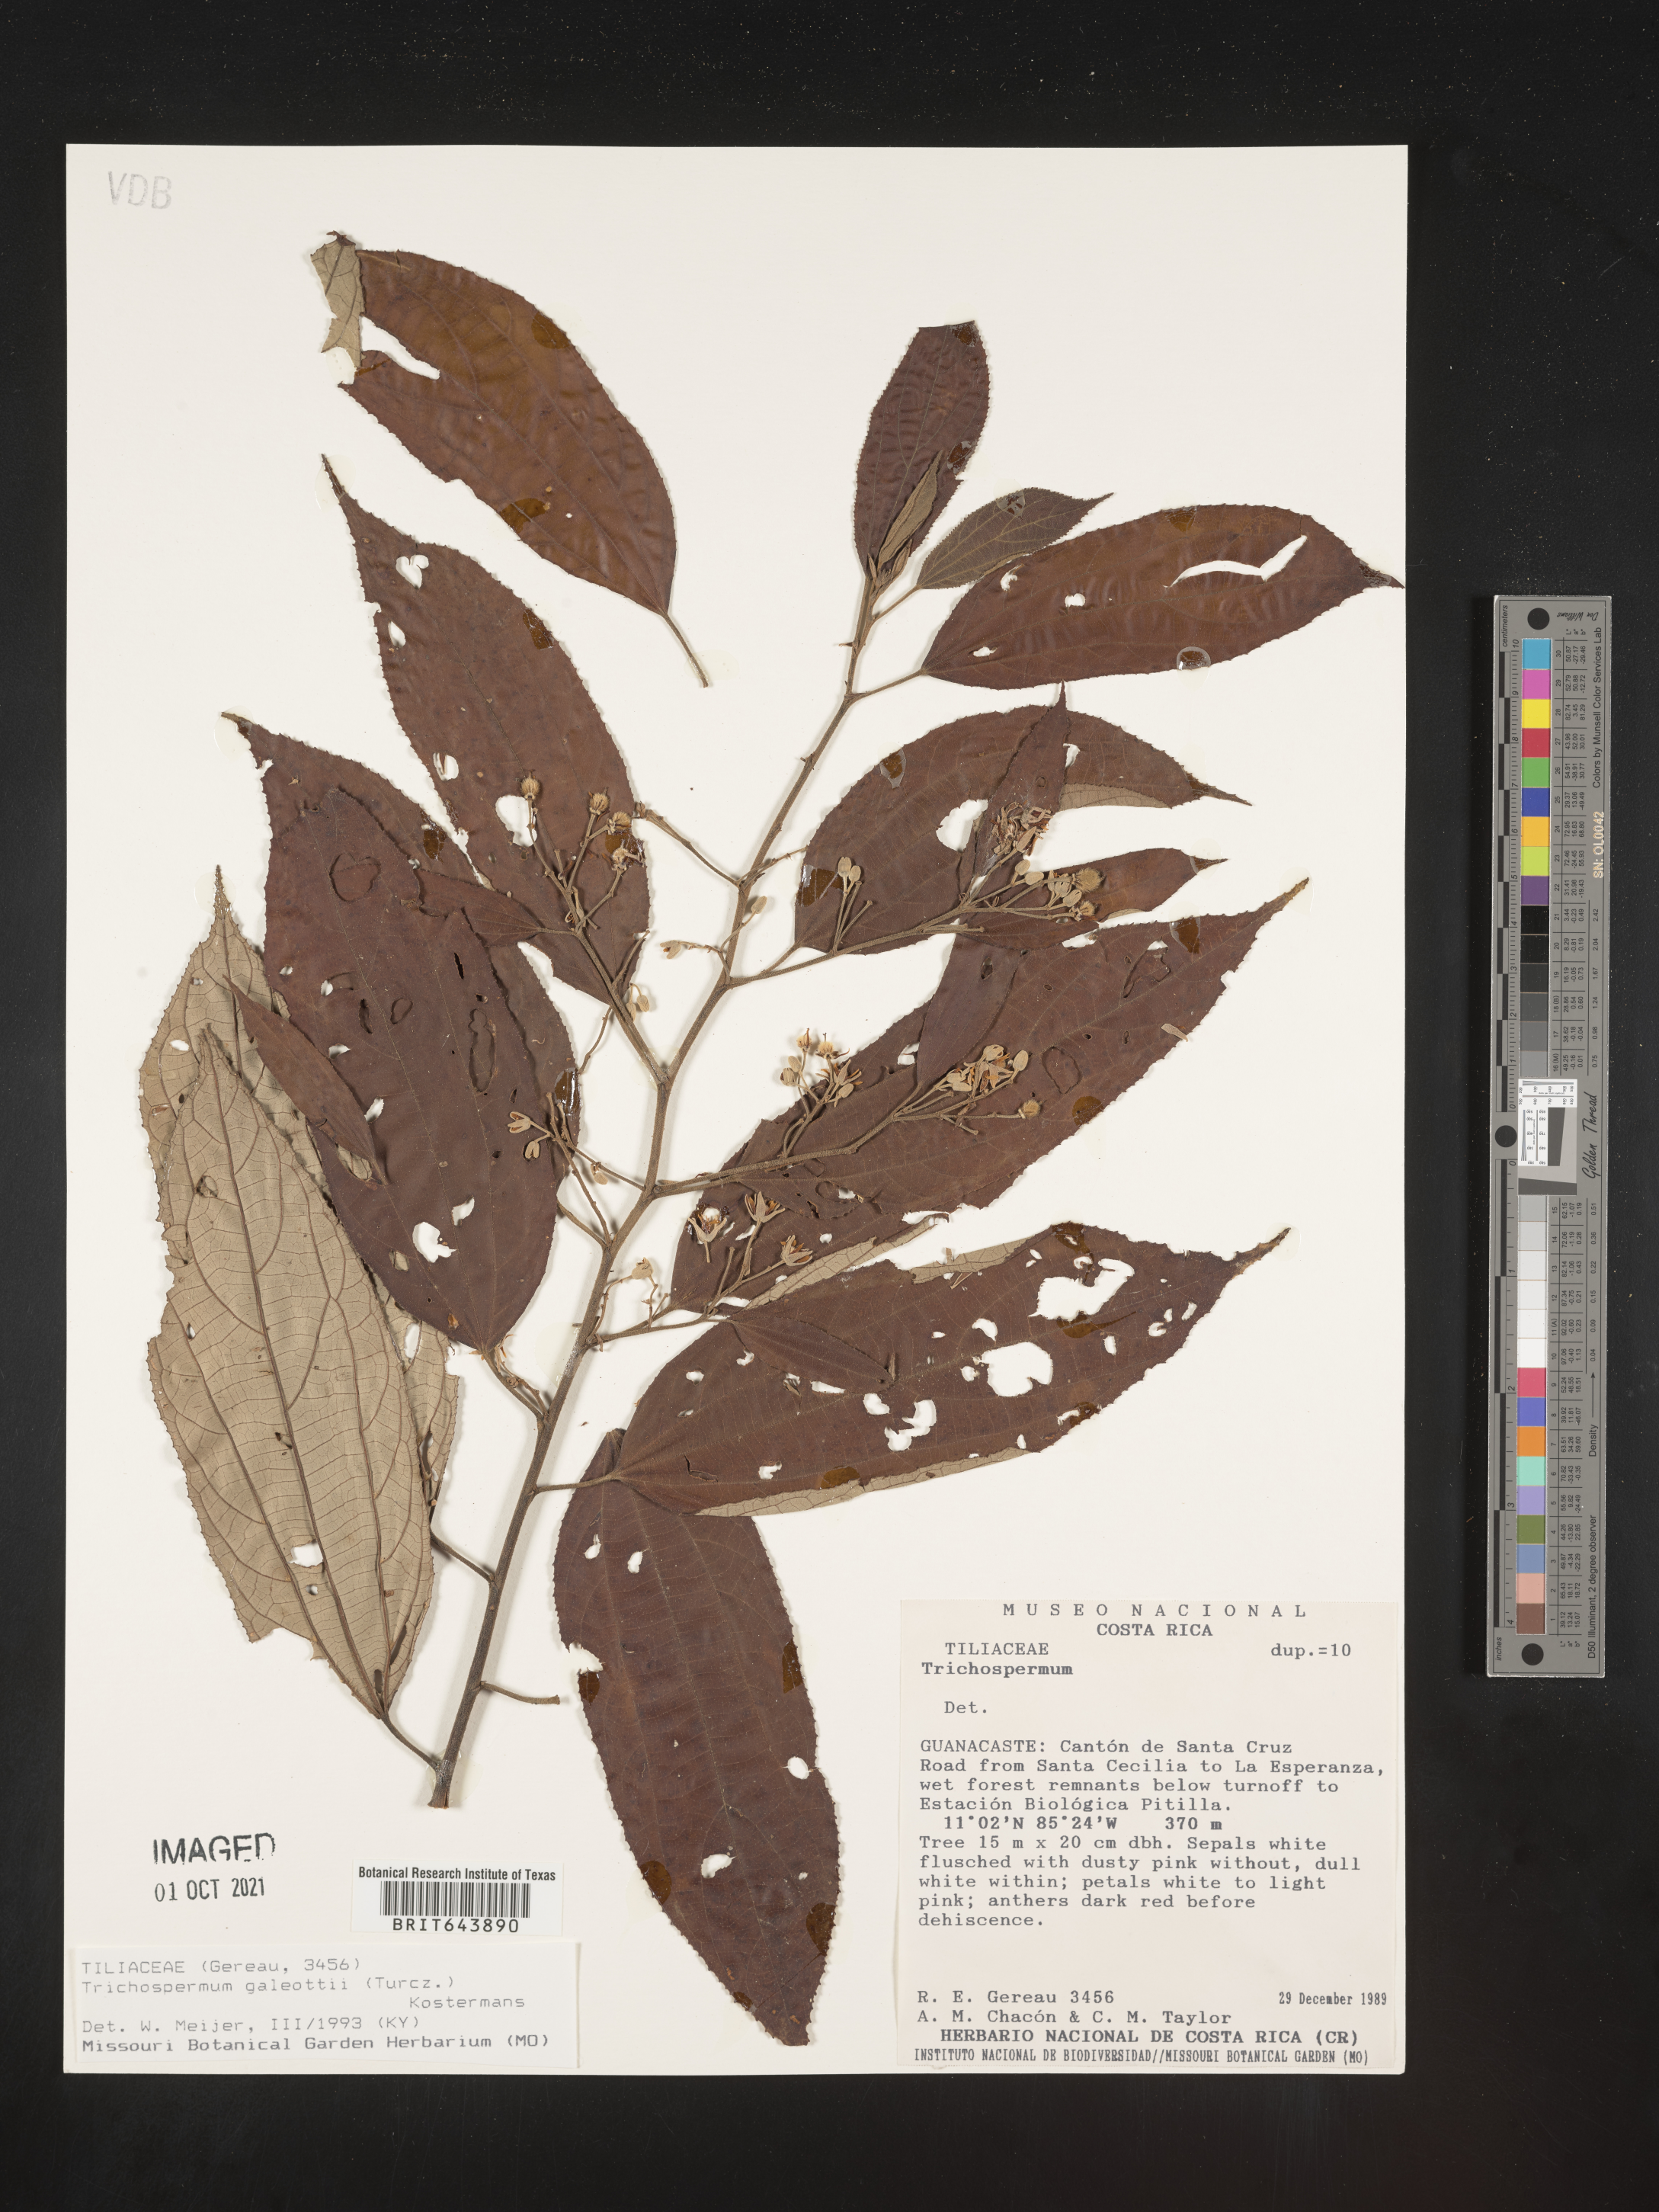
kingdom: Plantae
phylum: Tracheophyta
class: Magnoliopsida
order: Malvales
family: Malvaceae
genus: Trichospermum
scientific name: Trichospermum
